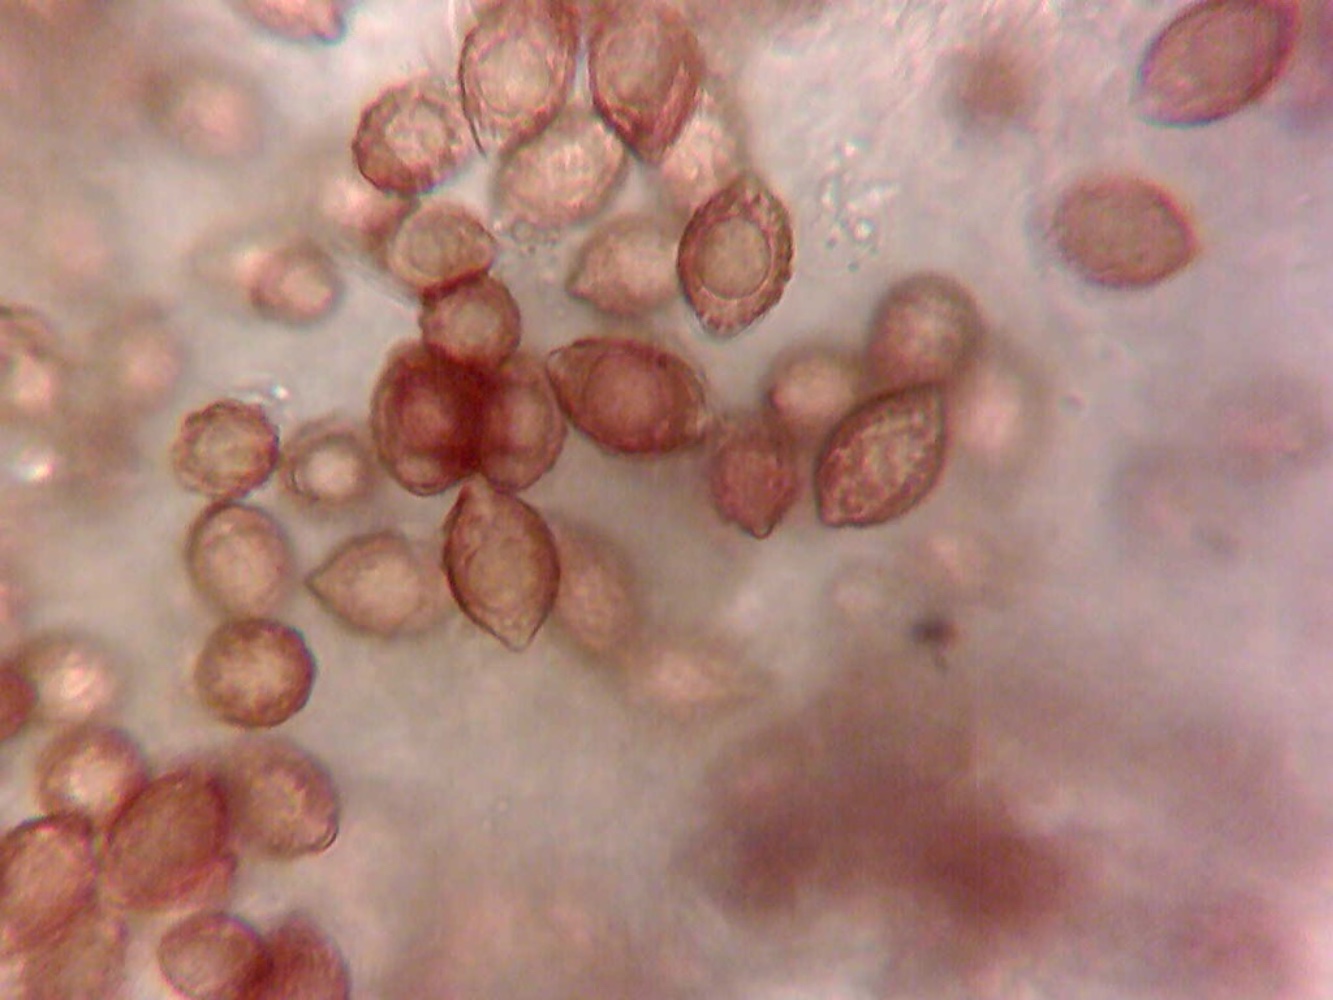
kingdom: Fungi
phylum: Basidiomycota
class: Agaricomycetes
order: Agaricales
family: Hymenogastraceae
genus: Hymenogaster
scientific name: Hymenogaster
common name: knoldtrøffel
